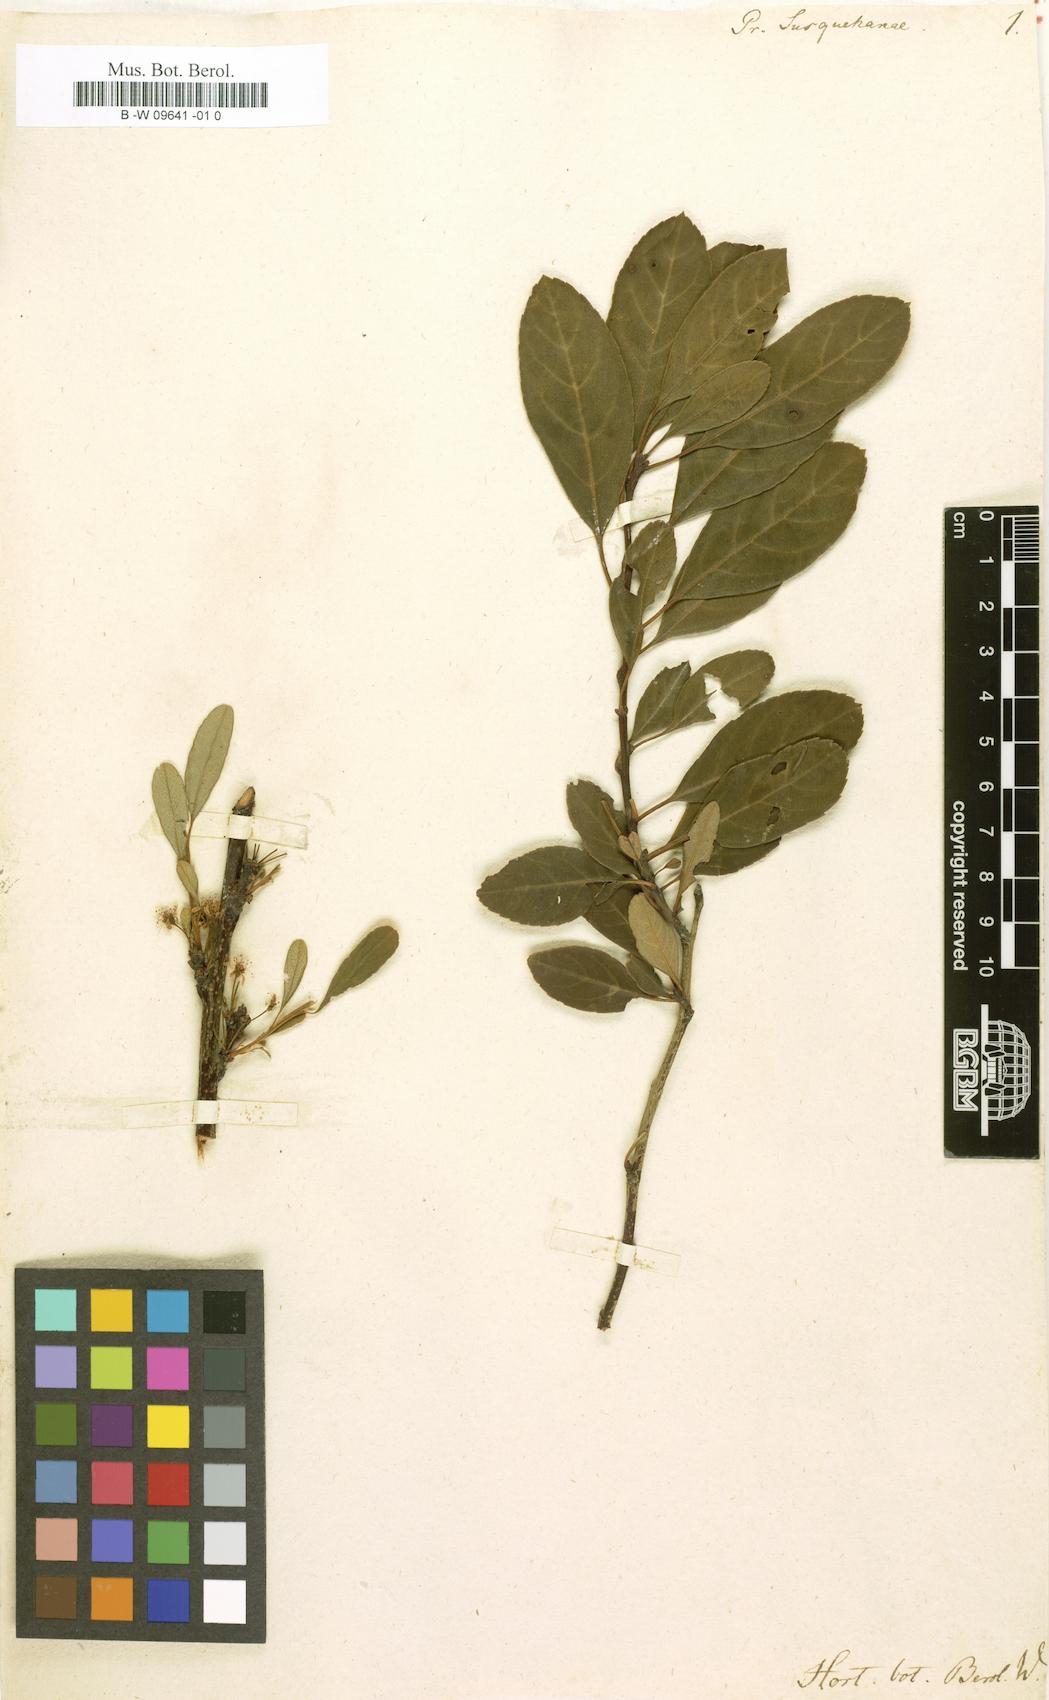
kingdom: Plantae
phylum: Tracheophyta
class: Magnoliopsida
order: Rosales
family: Rosaceae
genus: Prunus
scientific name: Prunus susquehanae
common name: Sesquehana sandcherry
